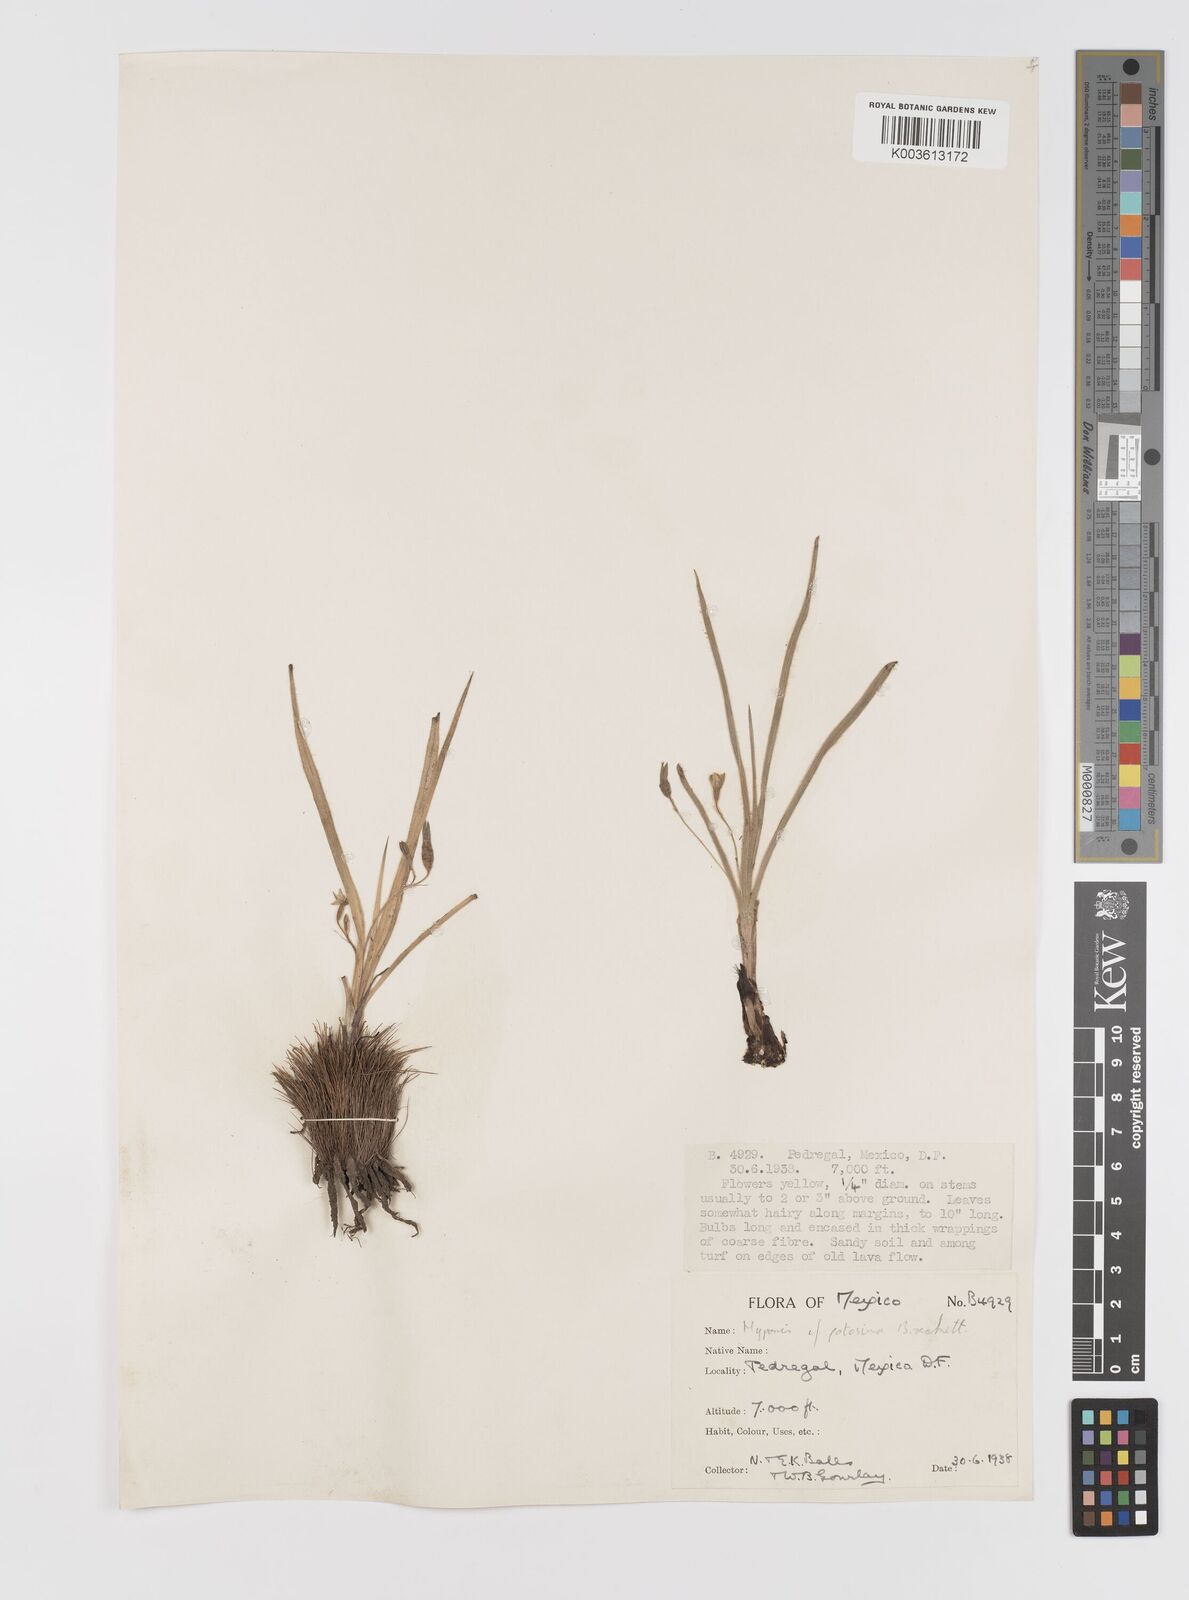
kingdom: Plantae
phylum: Tracheophyta
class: Liliopsida
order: Asparagales
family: Hypoxidaceae
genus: Hypoxis
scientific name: Hypoxis potosina
